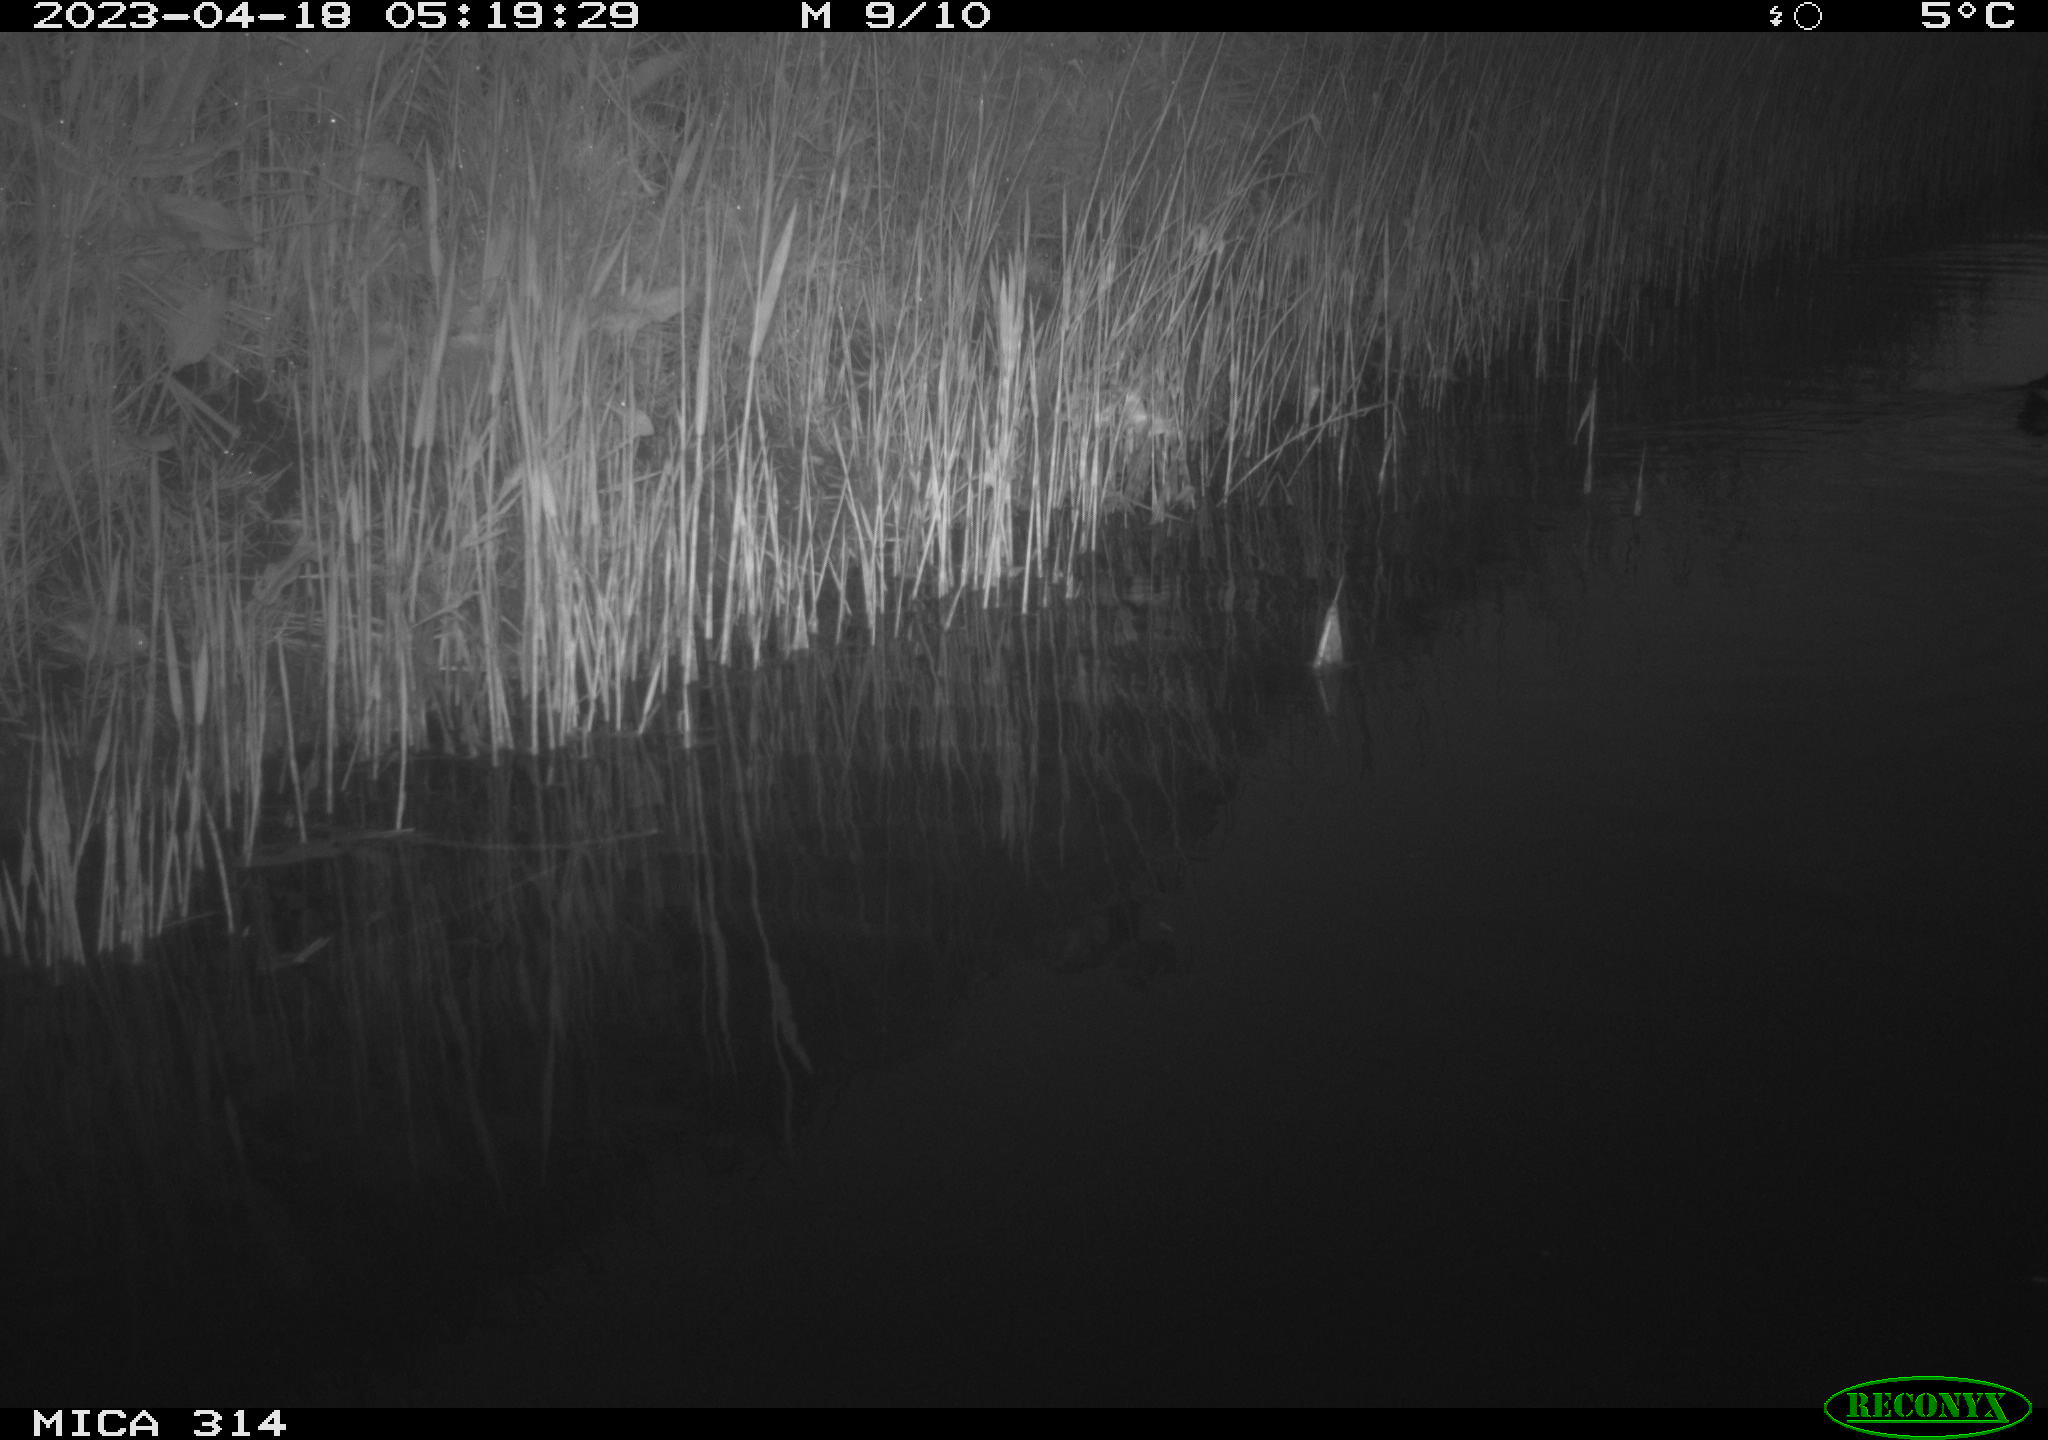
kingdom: Animalia
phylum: Chordata
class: Aves
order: Gruiformes
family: Rallidae
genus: Gallinula
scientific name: Gallinula chloropus
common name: Common moorhen
